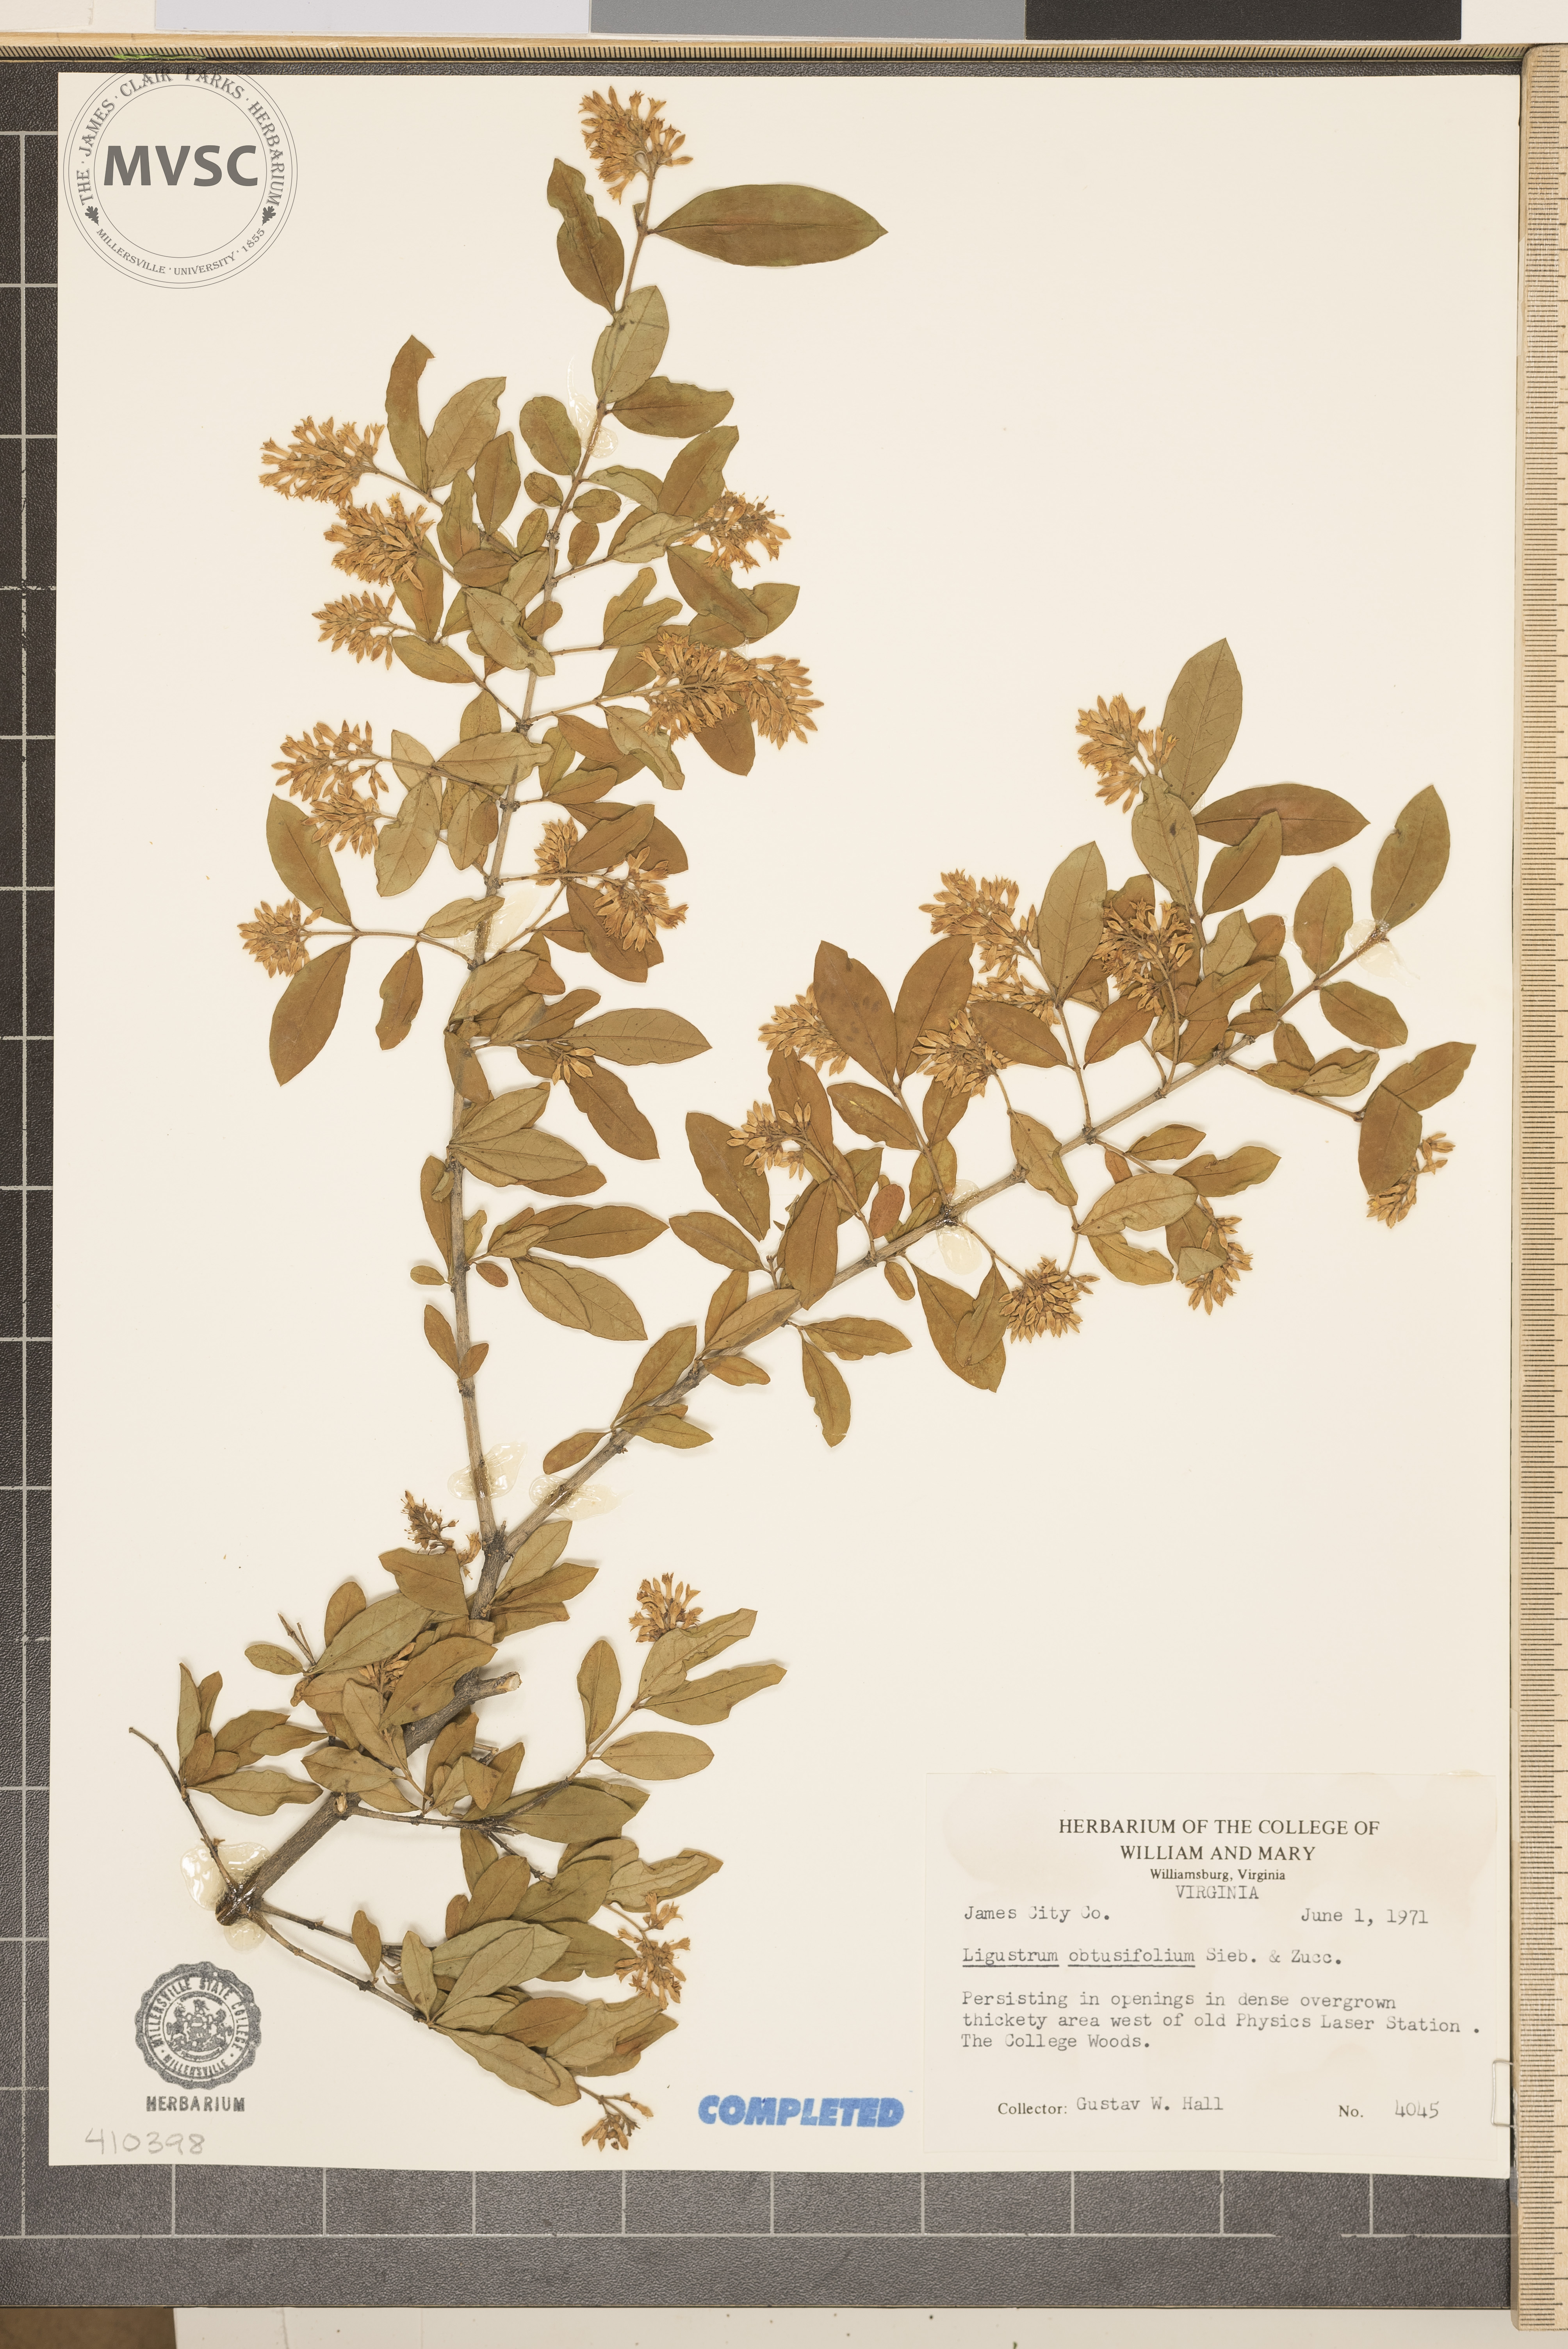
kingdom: Plantae
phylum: Tracheophyta
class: Magnoliopsida
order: Lamiales
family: Oleaceae
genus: Ligustrum
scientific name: Ligustrum obtusifolium
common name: border privet
